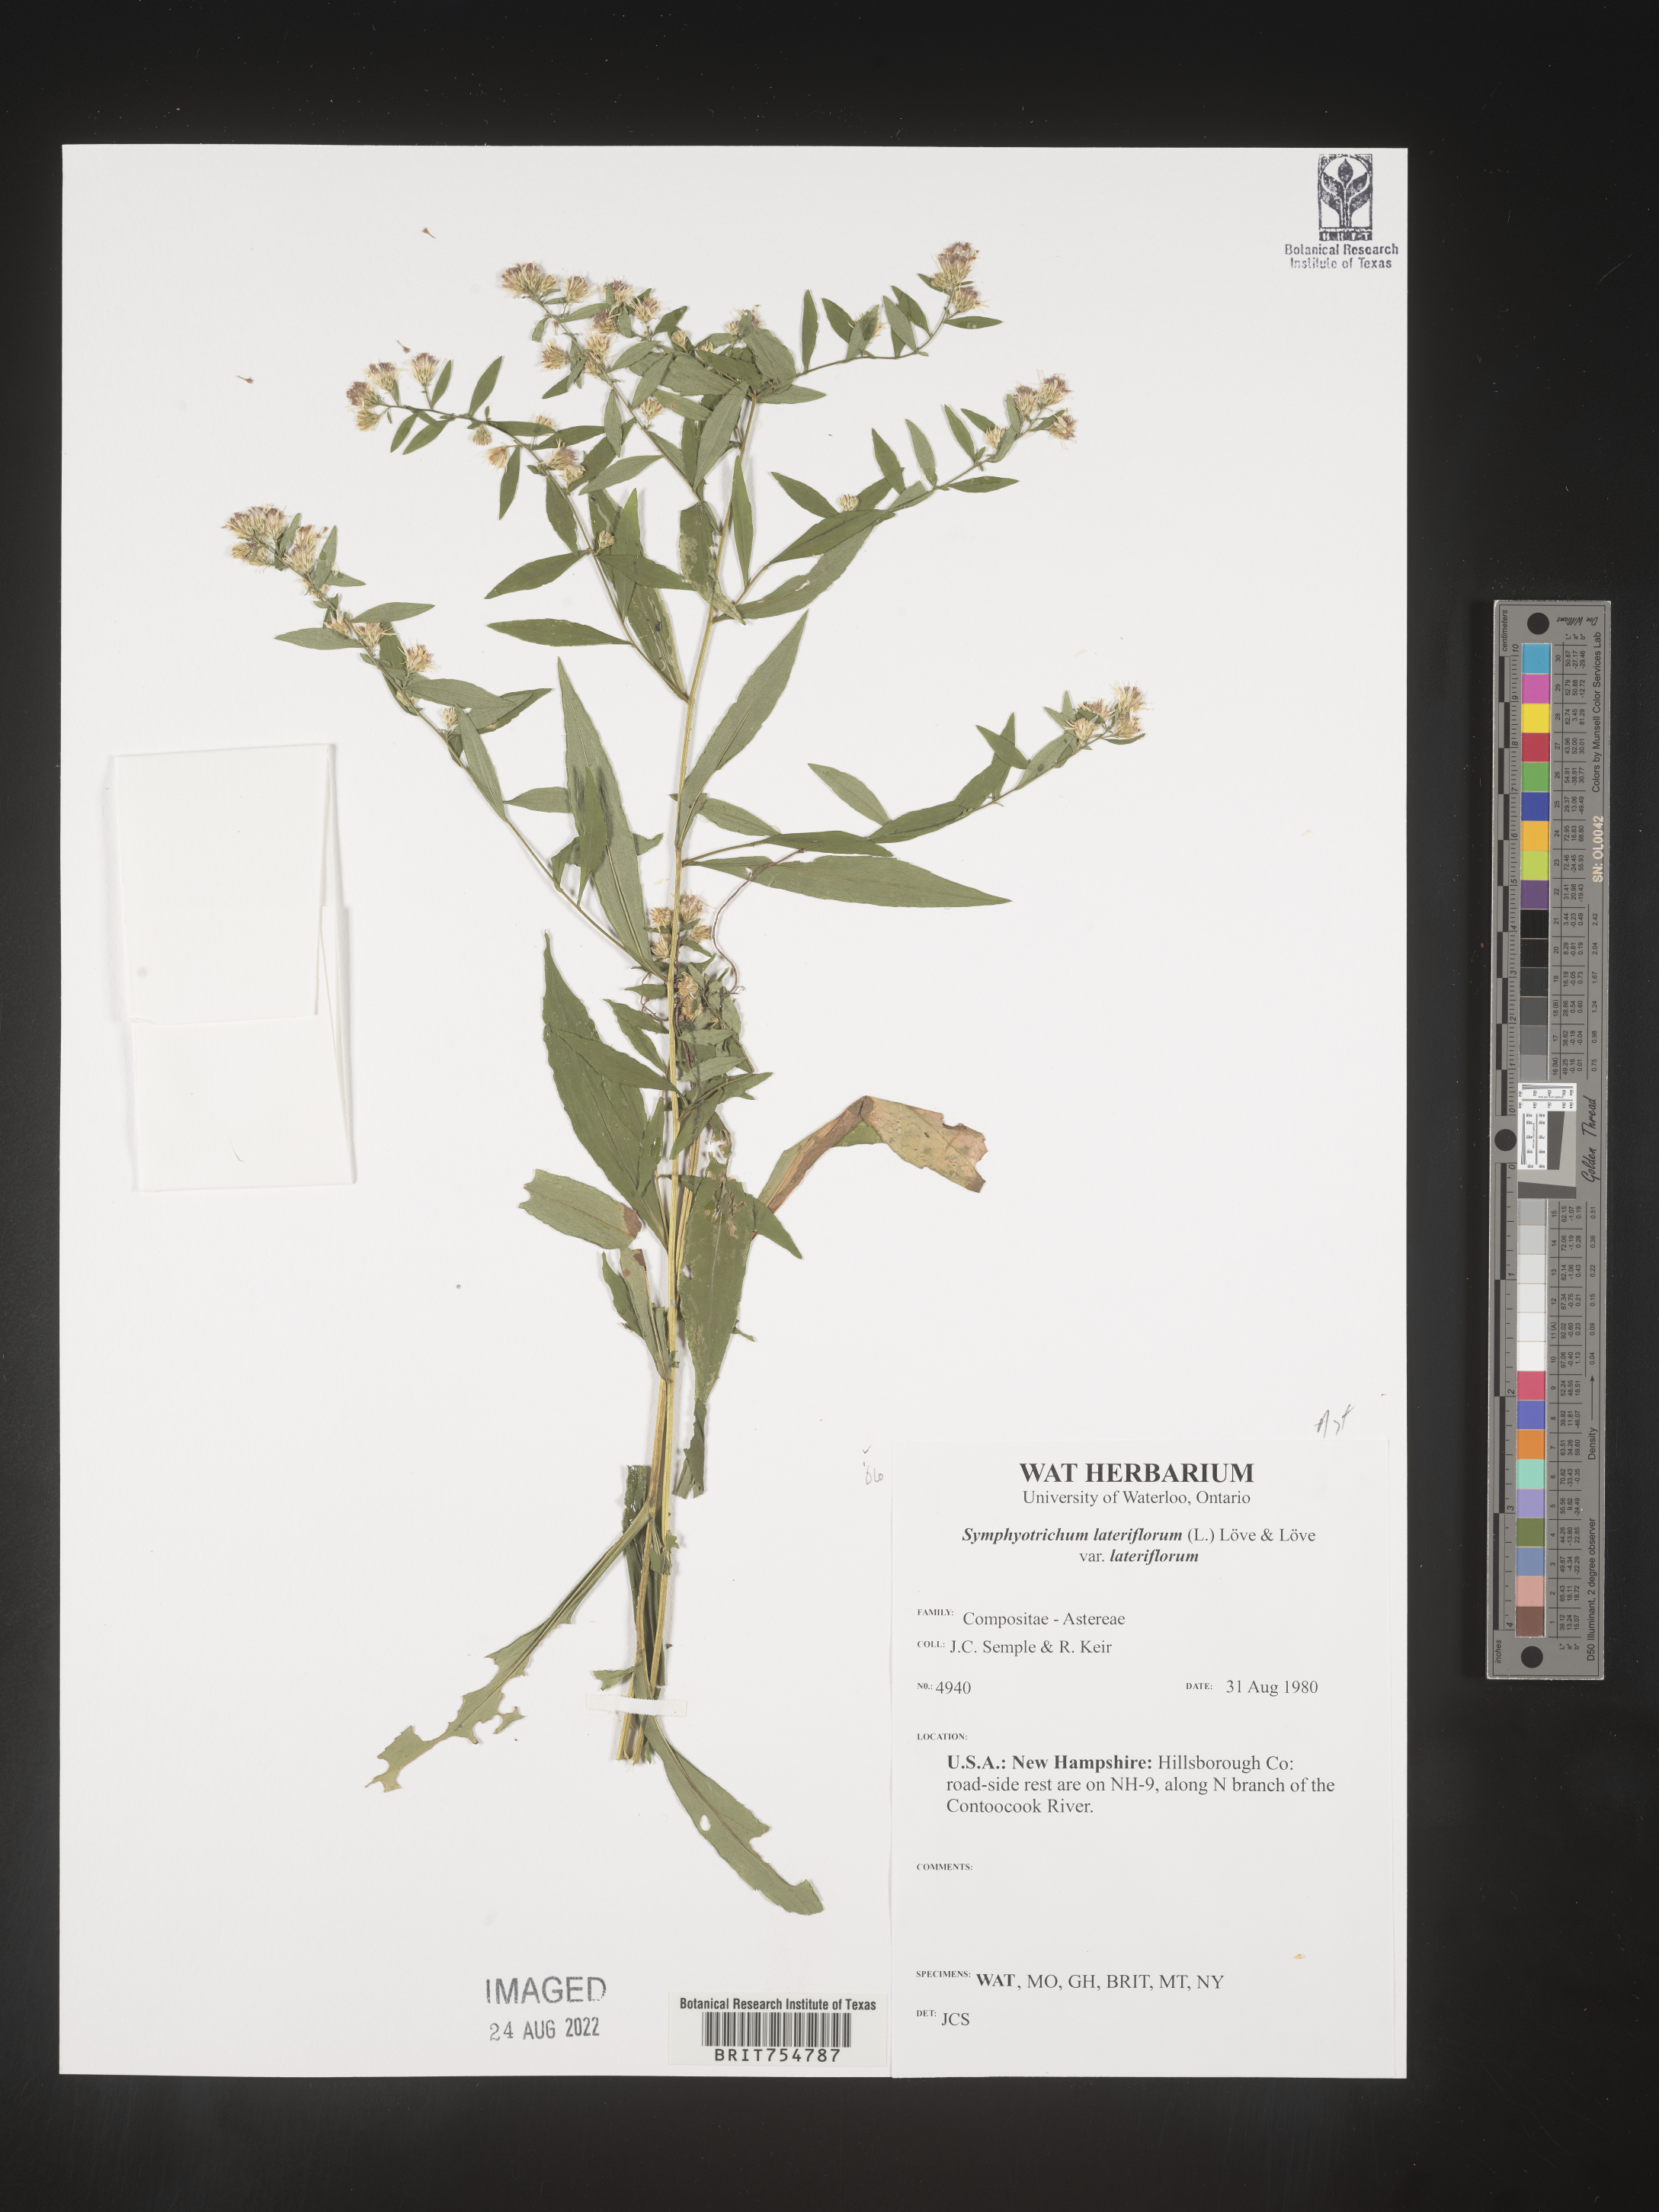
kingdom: Plantae
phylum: Tracheophyta
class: Magnoliopsida
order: Asterales
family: Asteraceae
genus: Symphyotrichum
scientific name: Symphyotrichum
